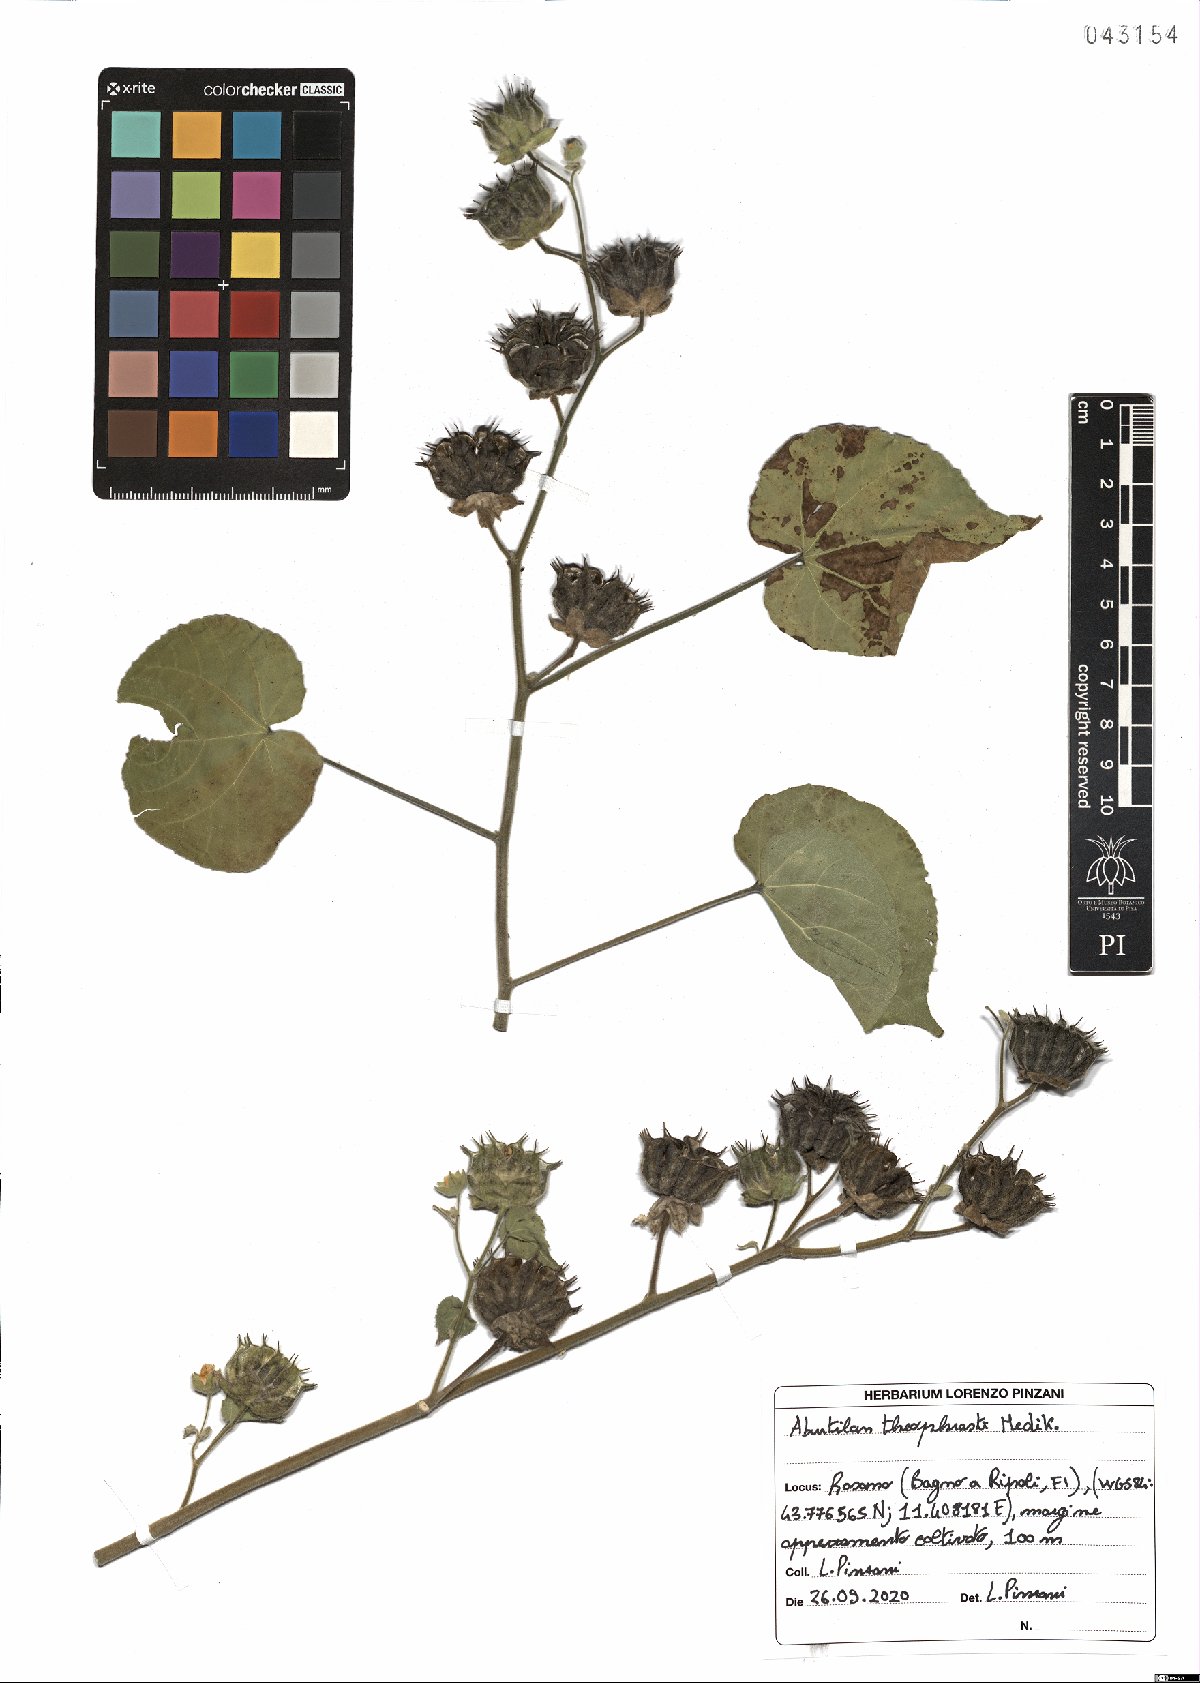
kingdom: Plantae
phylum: Tracheophyta
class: Magnoliopsida
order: Malvales
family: Malvaceae
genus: Abutilon
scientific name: Abutilon theophrasti
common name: Velvetleaf
